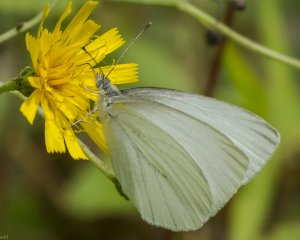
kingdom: Animalia
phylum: Arthropoda
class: Insecta
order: Lepidoptera
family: Pieridae
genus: Pieris
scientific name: Pieris oleracea
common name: Mustard White
